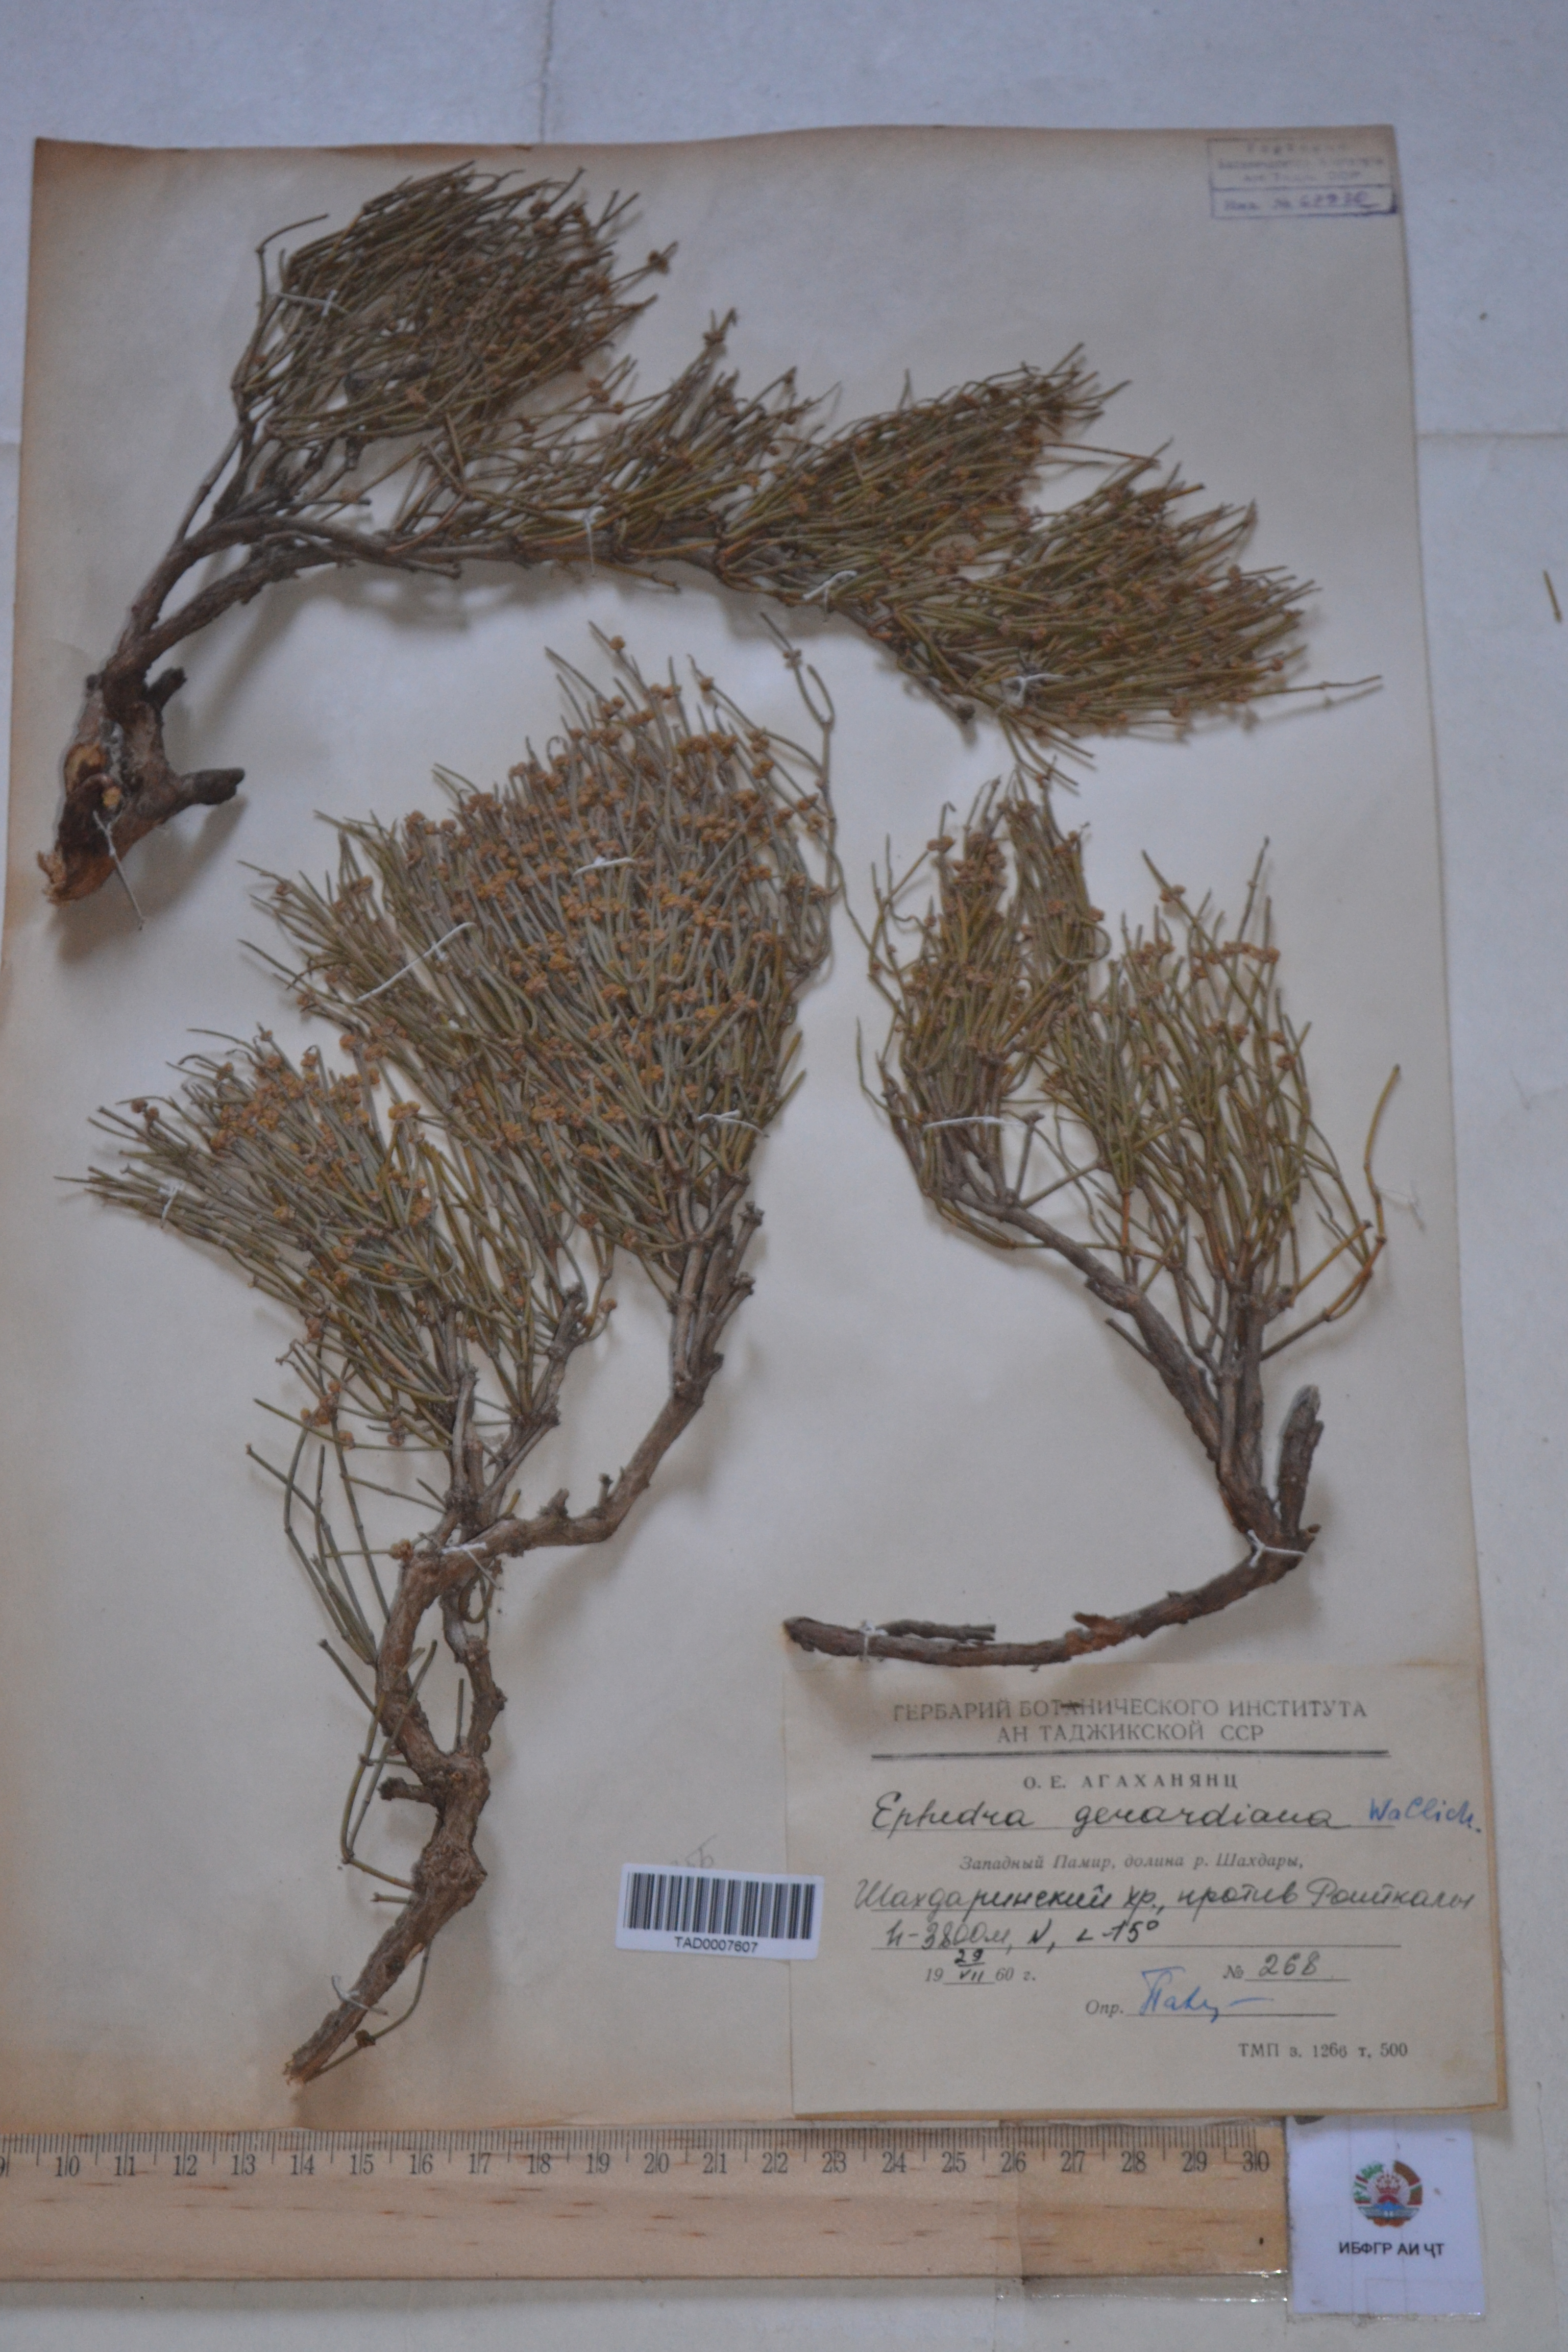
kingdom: Plantae
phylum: Tracheophyta
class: Gnetopsida
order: Ephedrales
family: Ephedraceae
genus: Ephedra
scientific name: Ephedra gerardiana
